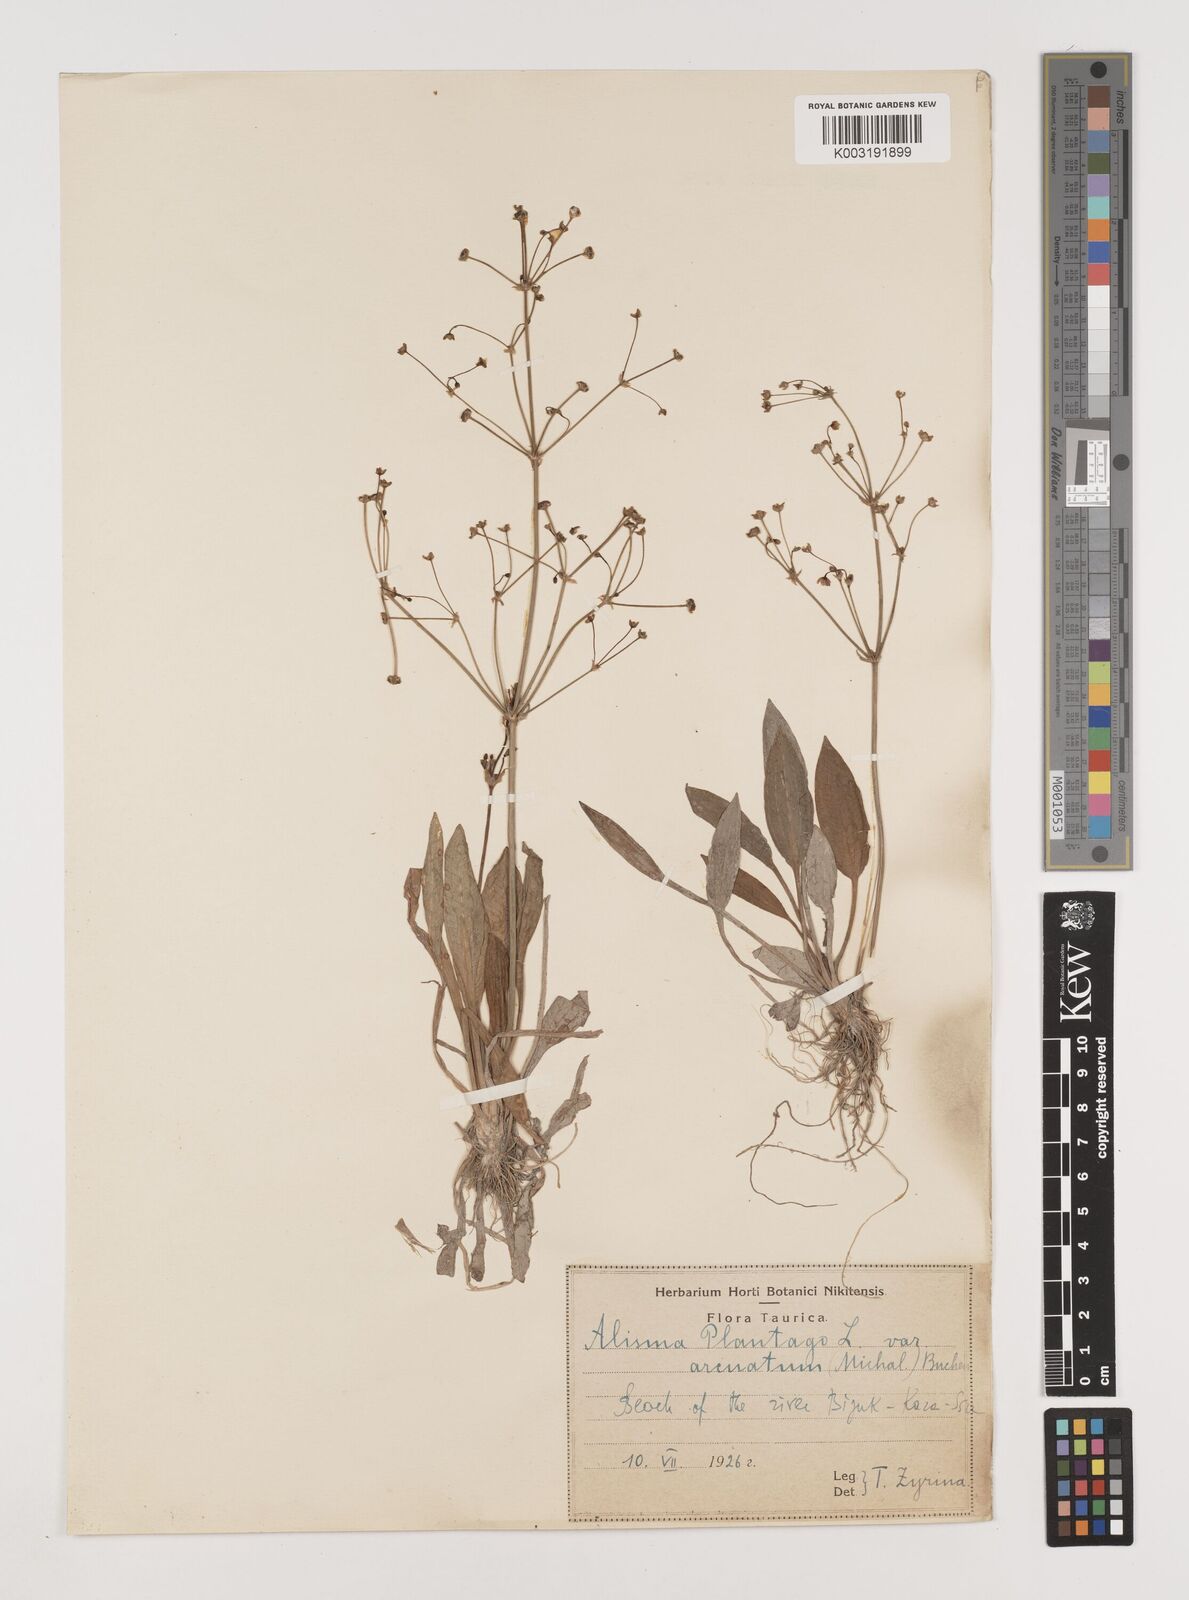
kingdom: Plantae
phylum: Tracheophyta
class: Liliopsida
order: Alismatales
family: Alismataceae
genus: Alisma
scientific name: Alisma gramineum
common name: Ribbon-leaved water-plantain
